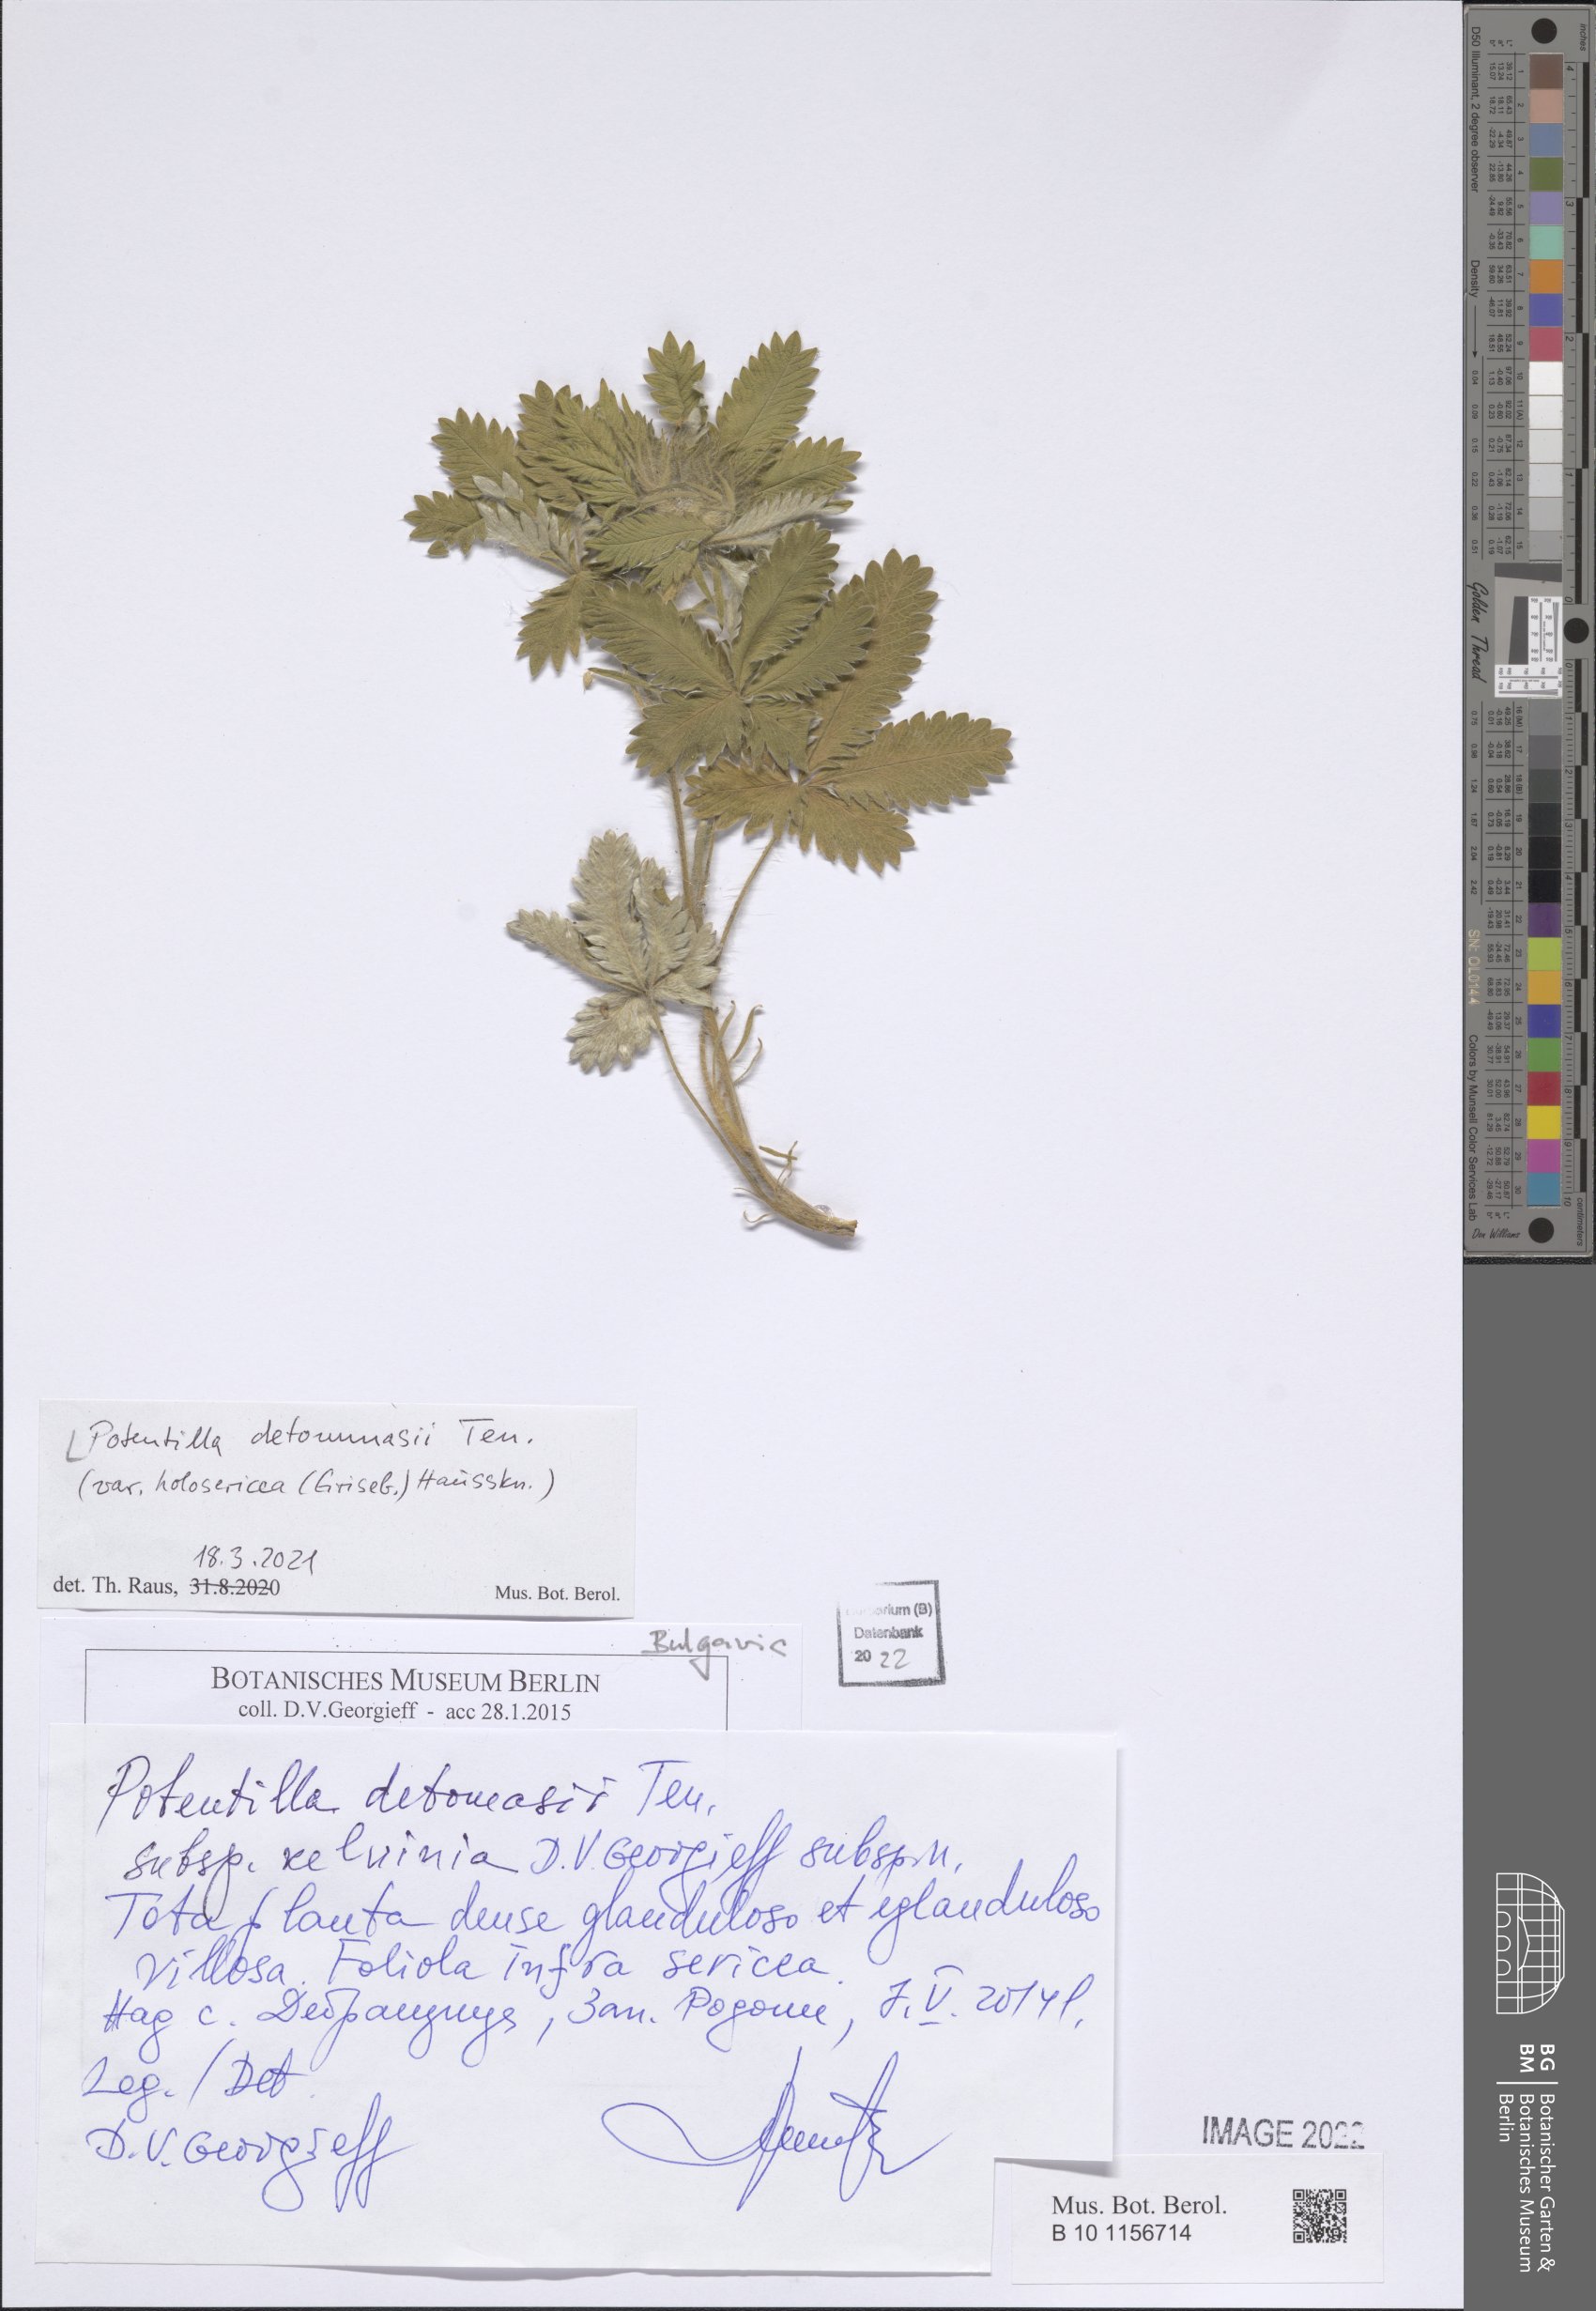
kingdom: Plantae
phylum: Tracheophyta
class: Magnoliopsida
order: Rosales
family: Rosaceae
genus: Potentilla
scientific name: Potentilla detommasii
